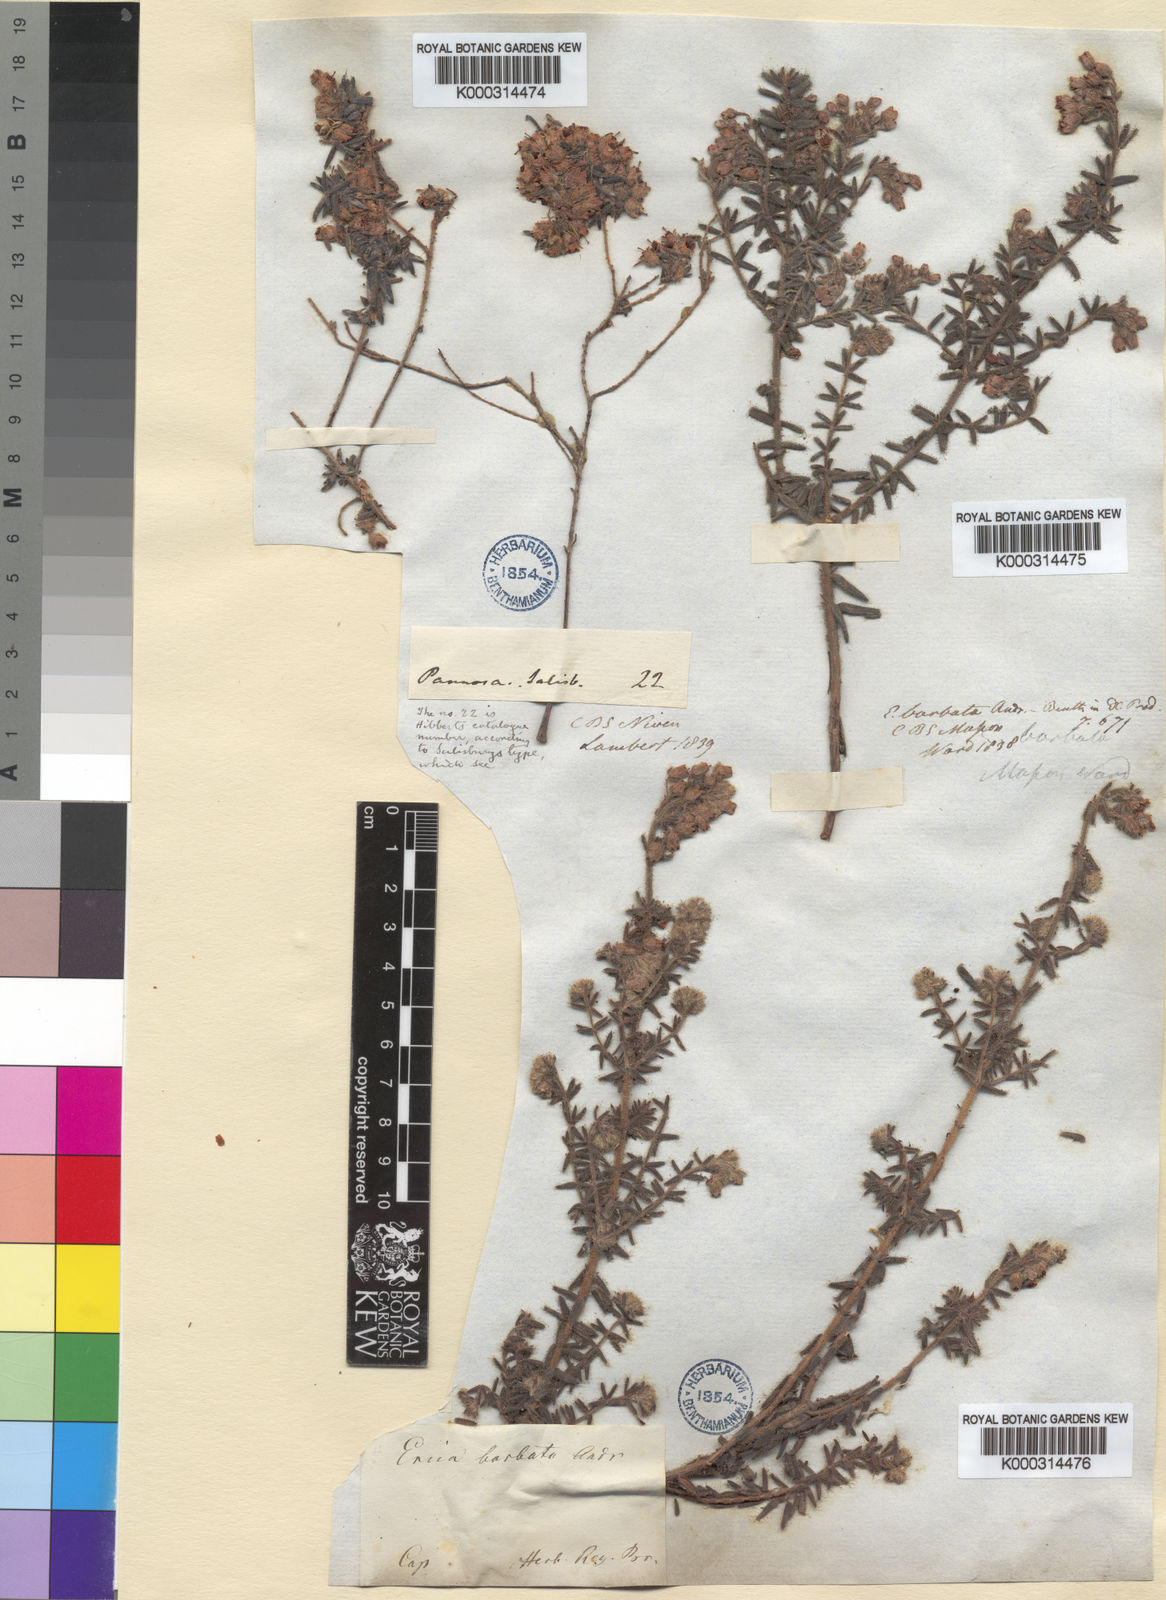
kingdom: Plantae
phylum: Tracheophyta
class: Magnoliopsida
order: Ericales
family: Ericaceae
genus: Erica
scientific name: Erica pannosa
